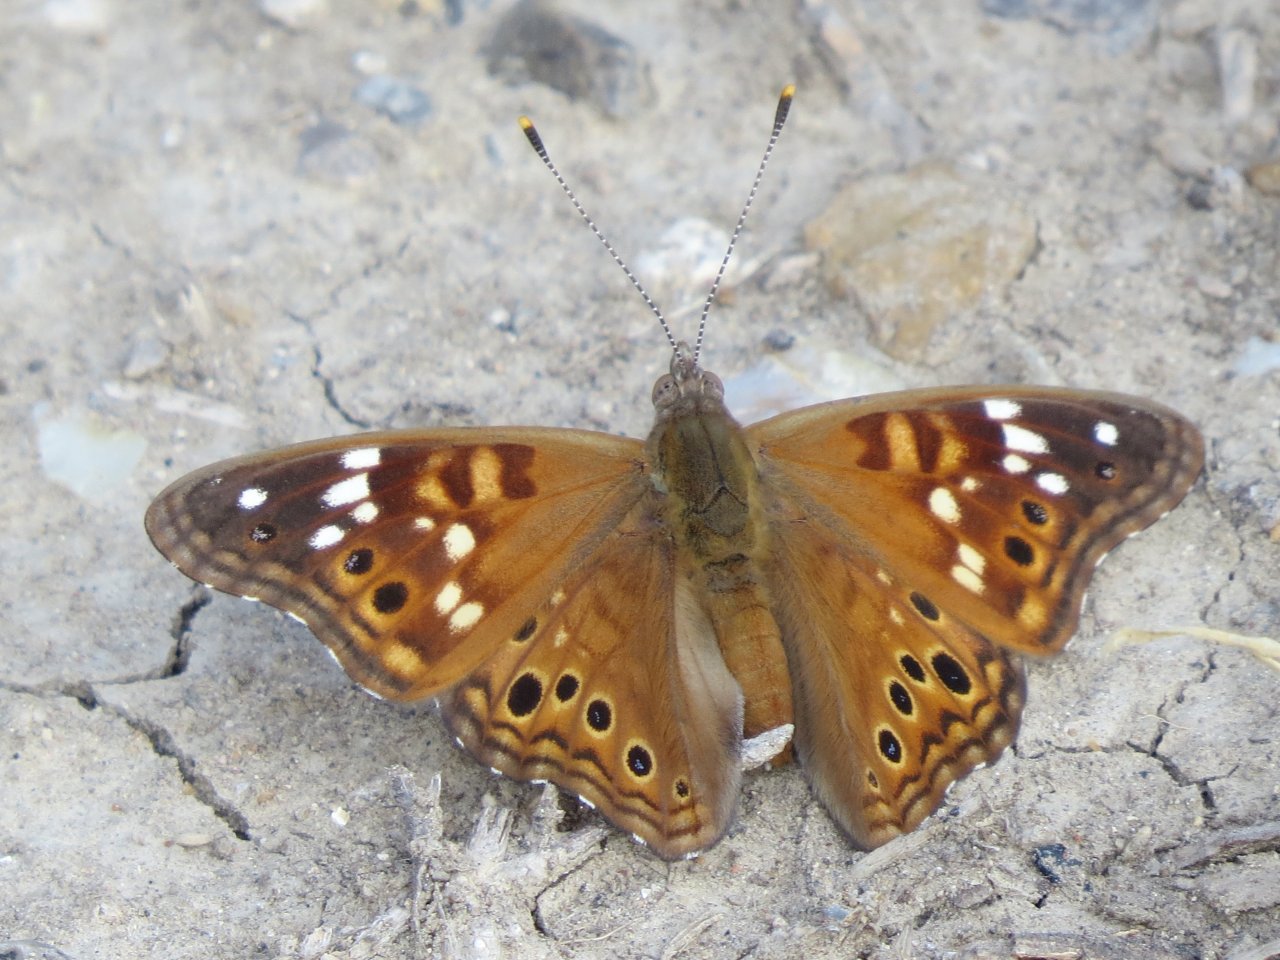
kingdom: Animalia
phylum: Arthropoda
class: Insecta
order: Lepidoptera
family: Nymphalidae
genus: Asterocampa
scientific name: Asterocampa leilia
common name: Empress Leilia
